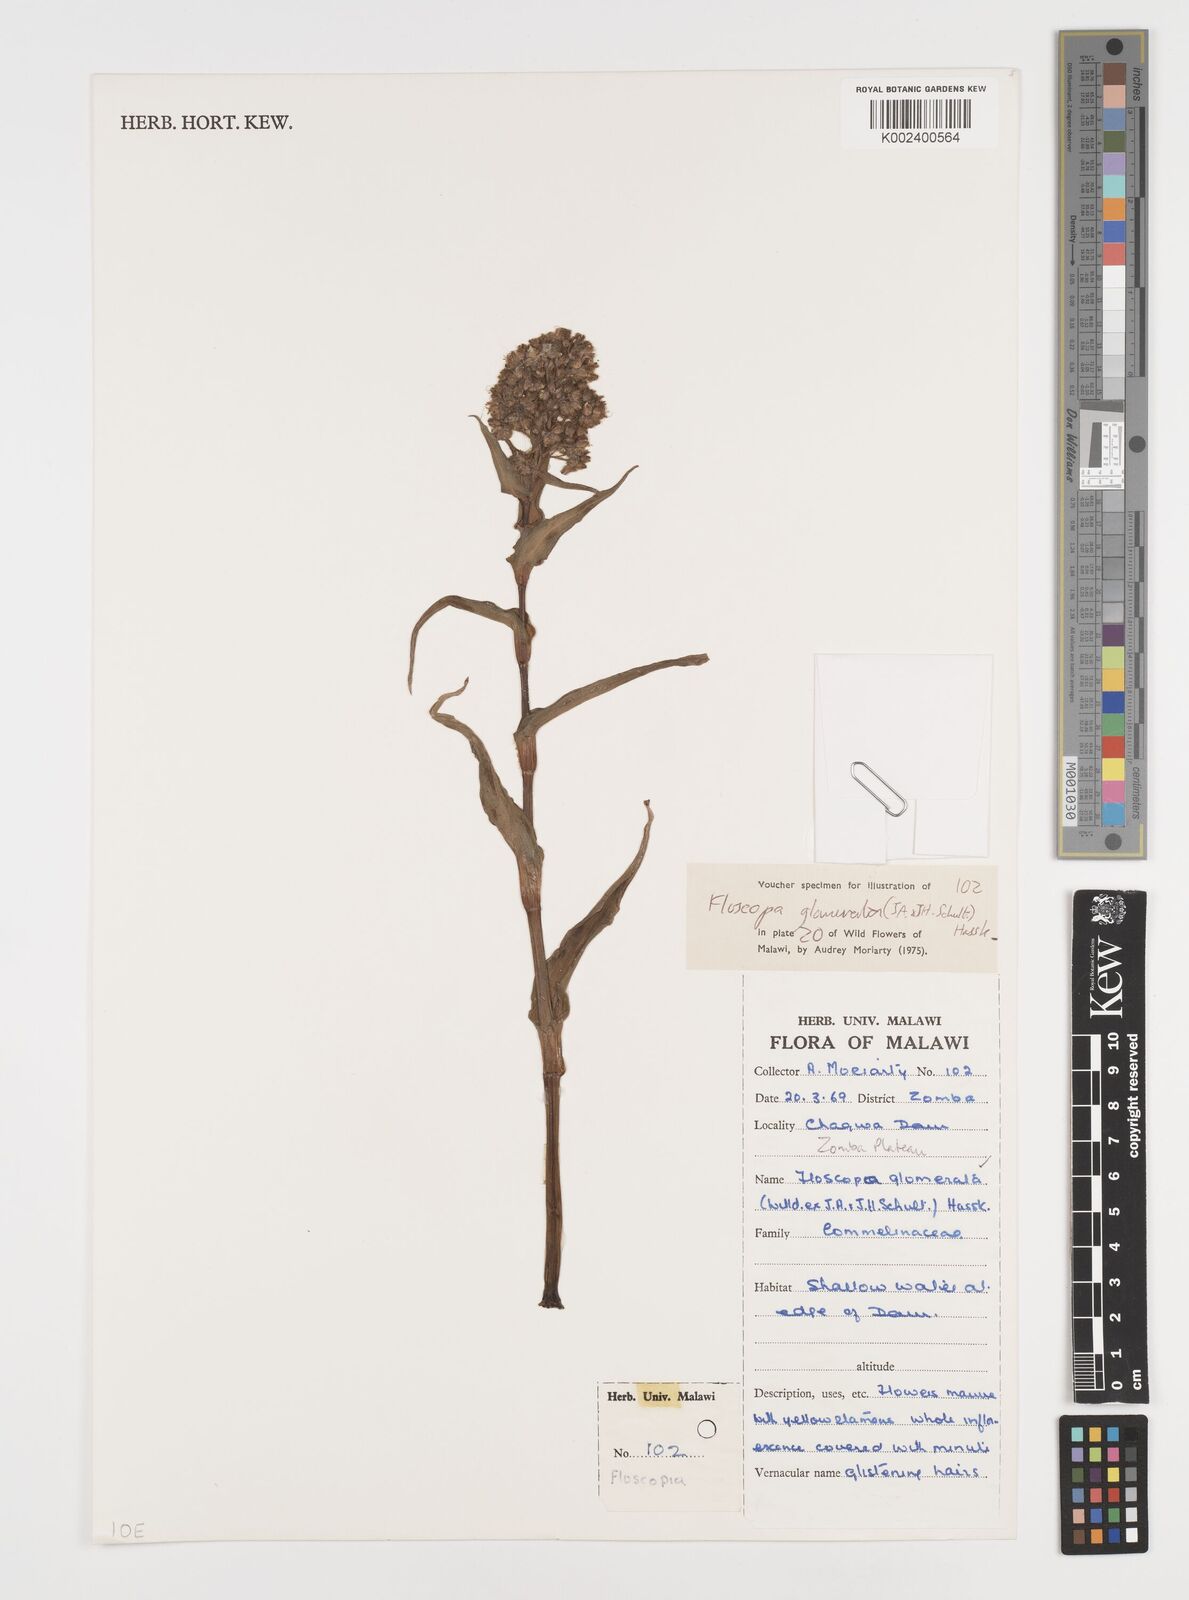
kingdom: Plantae
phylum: Tracheophyta
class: Liliopsida
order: Commelinales
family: Commelinaceae
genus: Floscopa
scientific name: Floscopa glomerata
